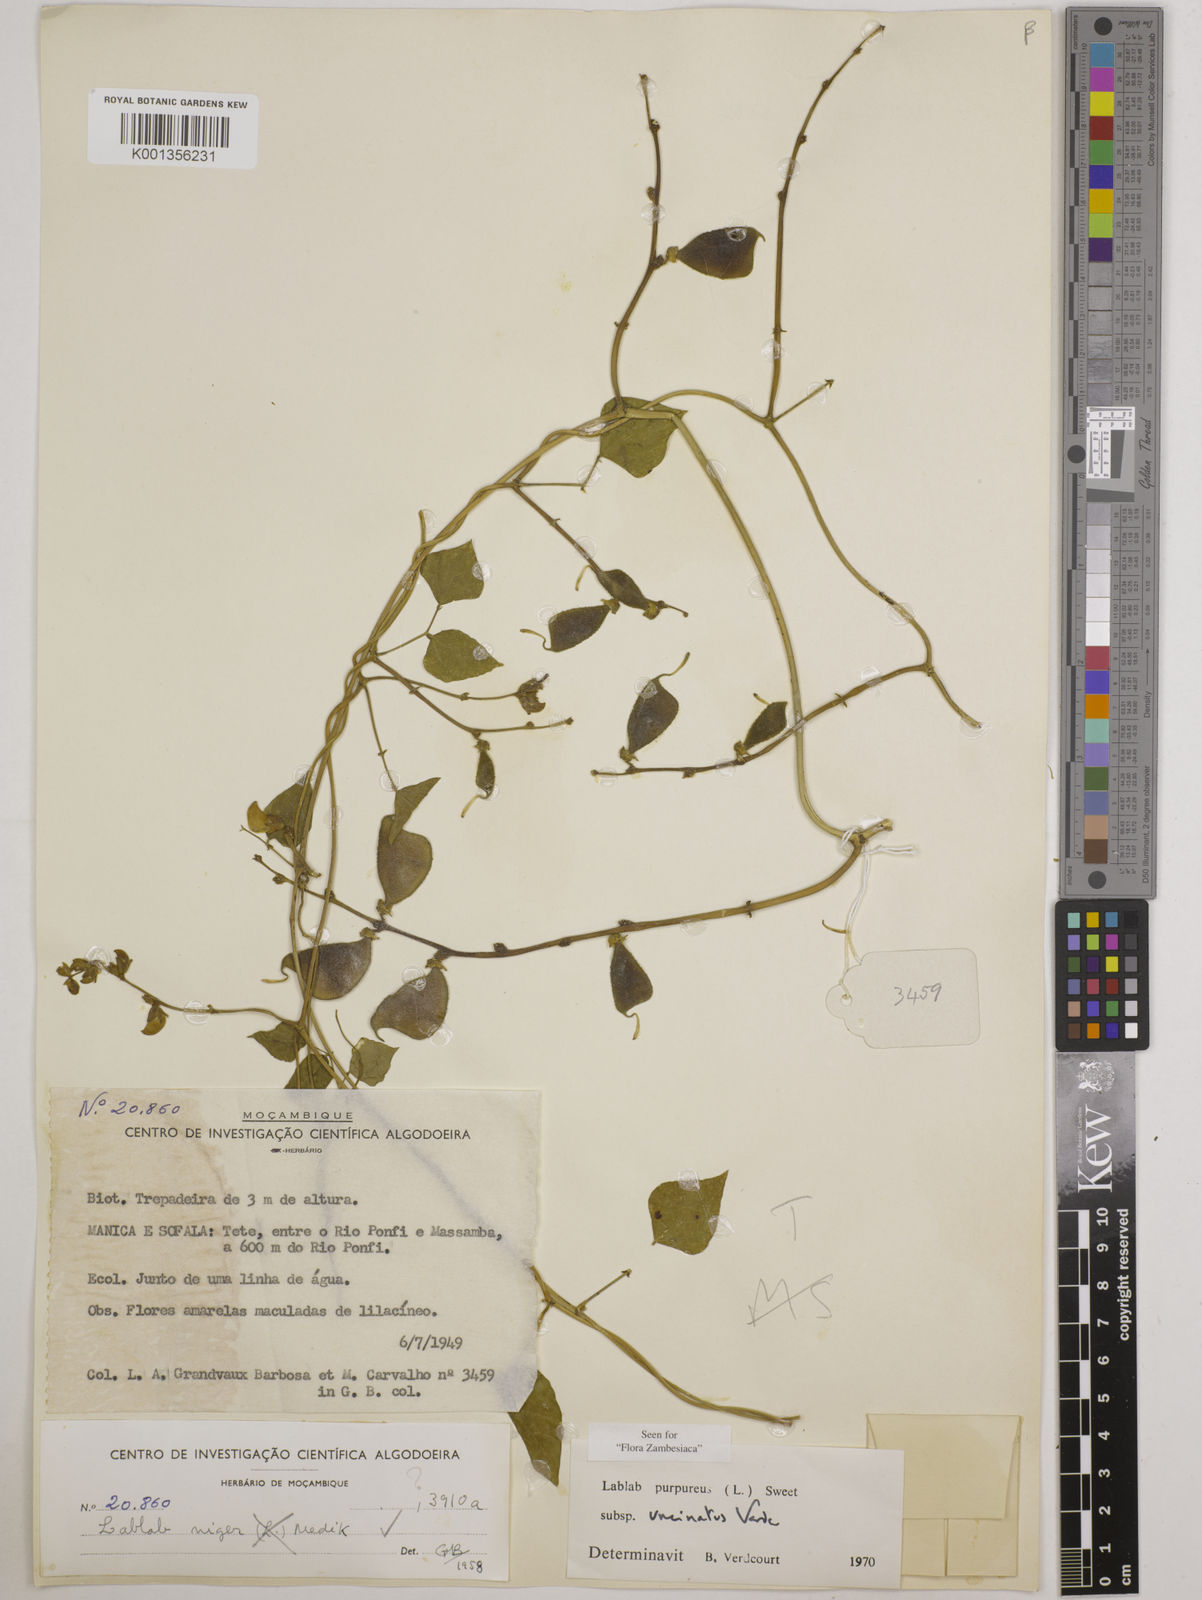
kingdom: Plantae
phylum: Tracheophyta
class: Magnoliopsida
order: Fabales
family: Fabaceae
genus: Lablab
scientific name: Lablab purpureus
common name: Lablab-bean
